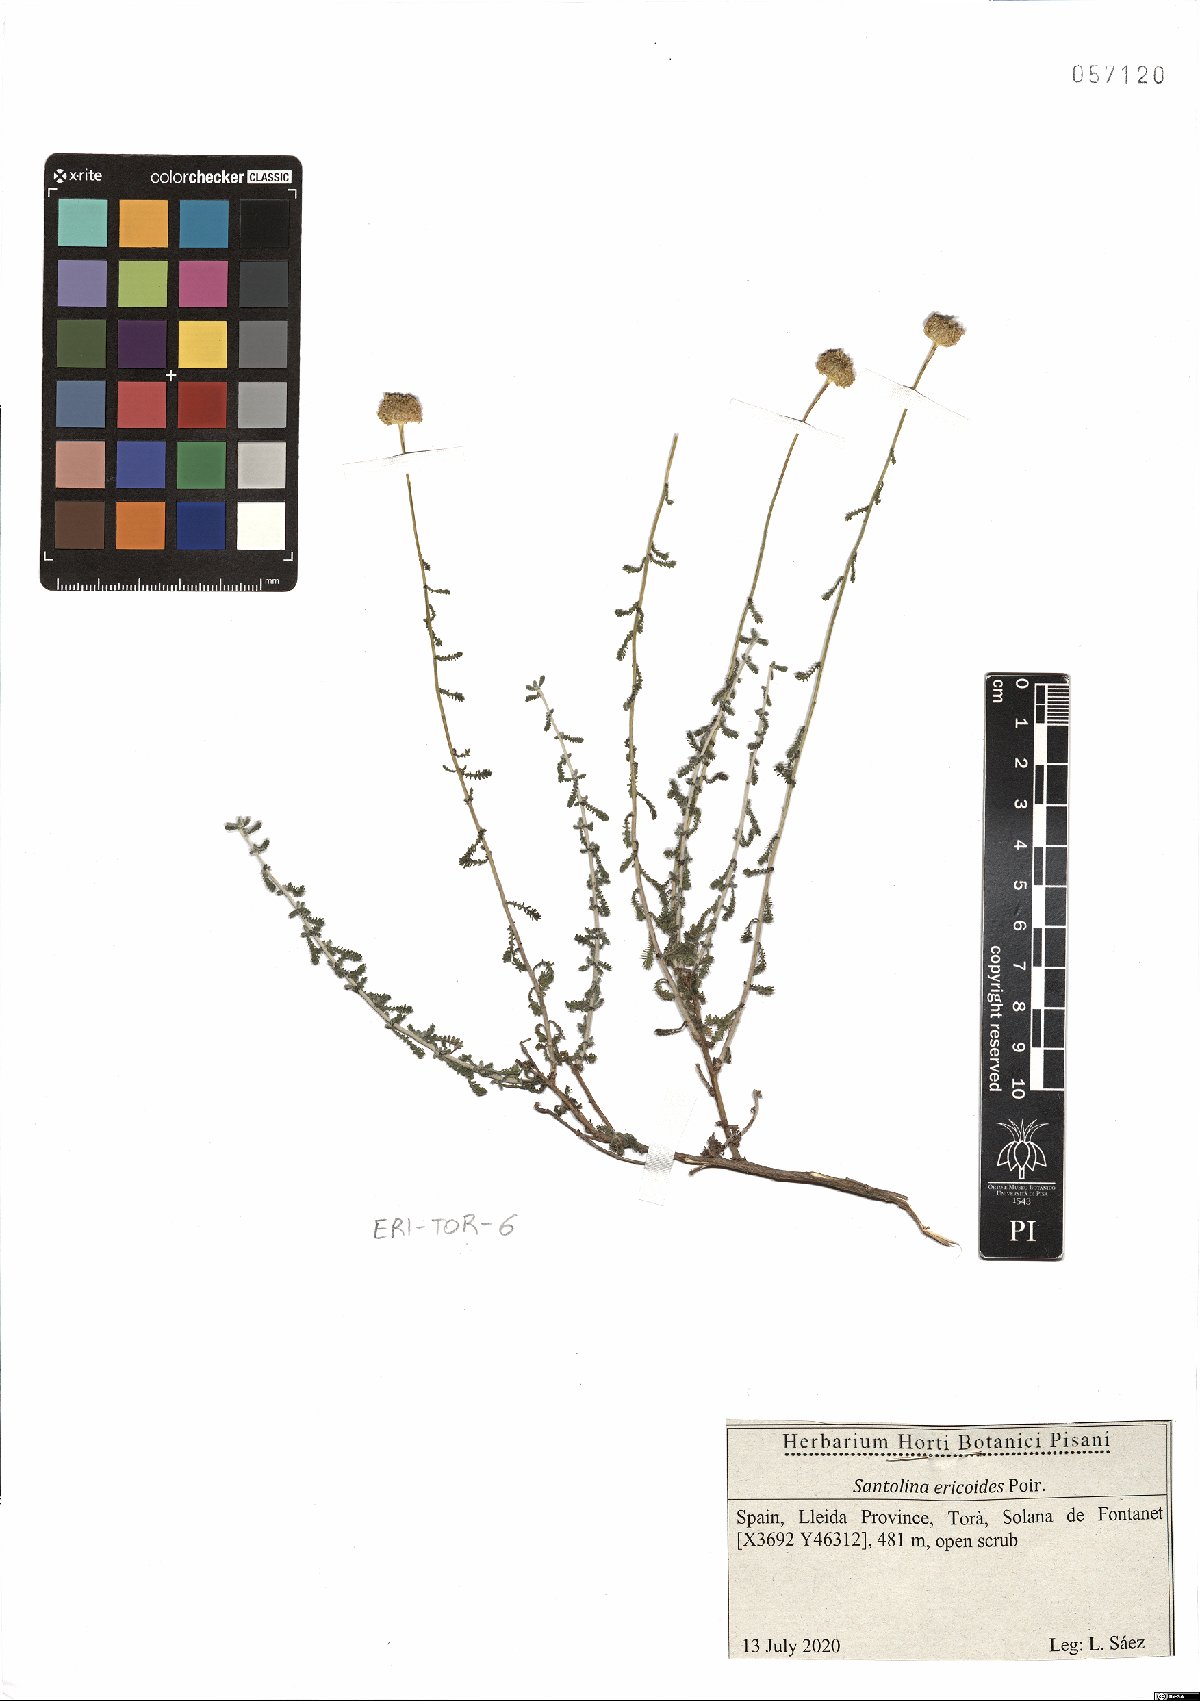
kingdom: Plantae
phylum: Tracheophyta
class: Magnoliopsida
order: Asterales
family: Asteraceae
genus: Santolina
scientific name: Santolina ericoides
